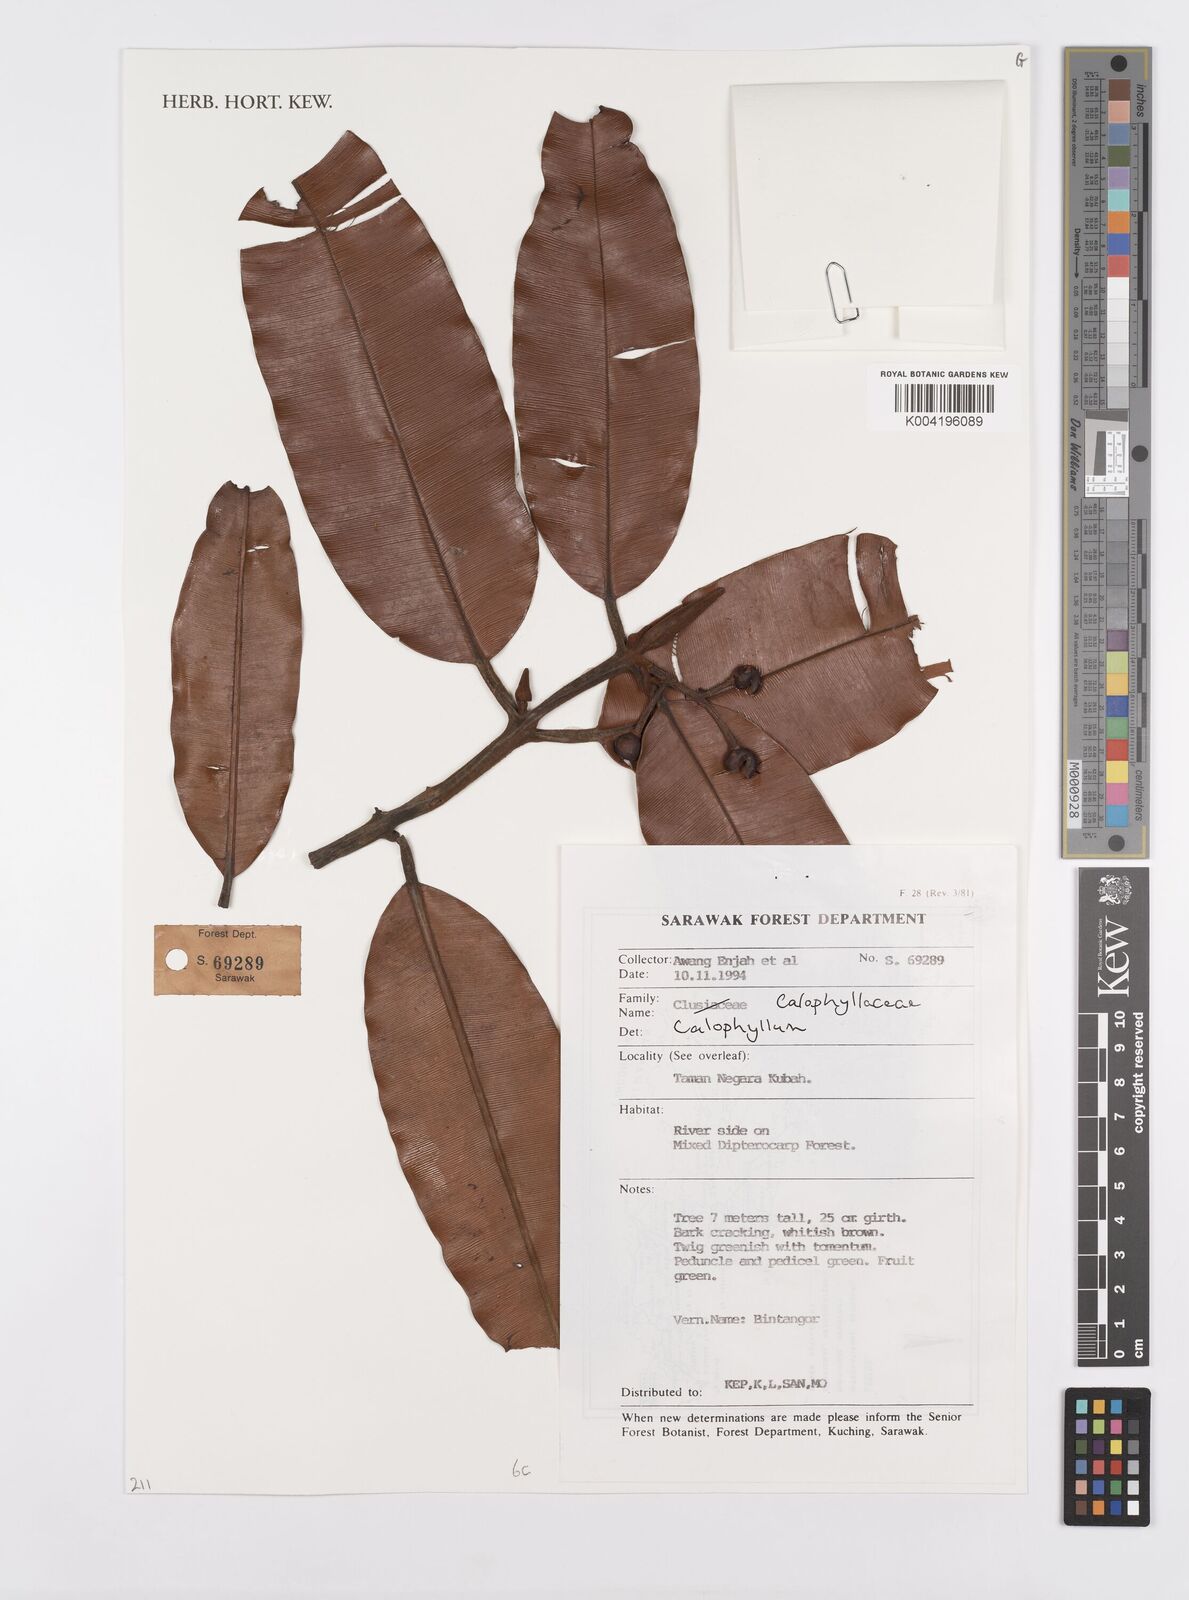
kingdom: Plantae
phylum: Tracheophyta
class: Magnoliopsida
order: Malpighiales
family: Calophyllaceae
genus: Calophyllum
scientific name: Calophyllum
